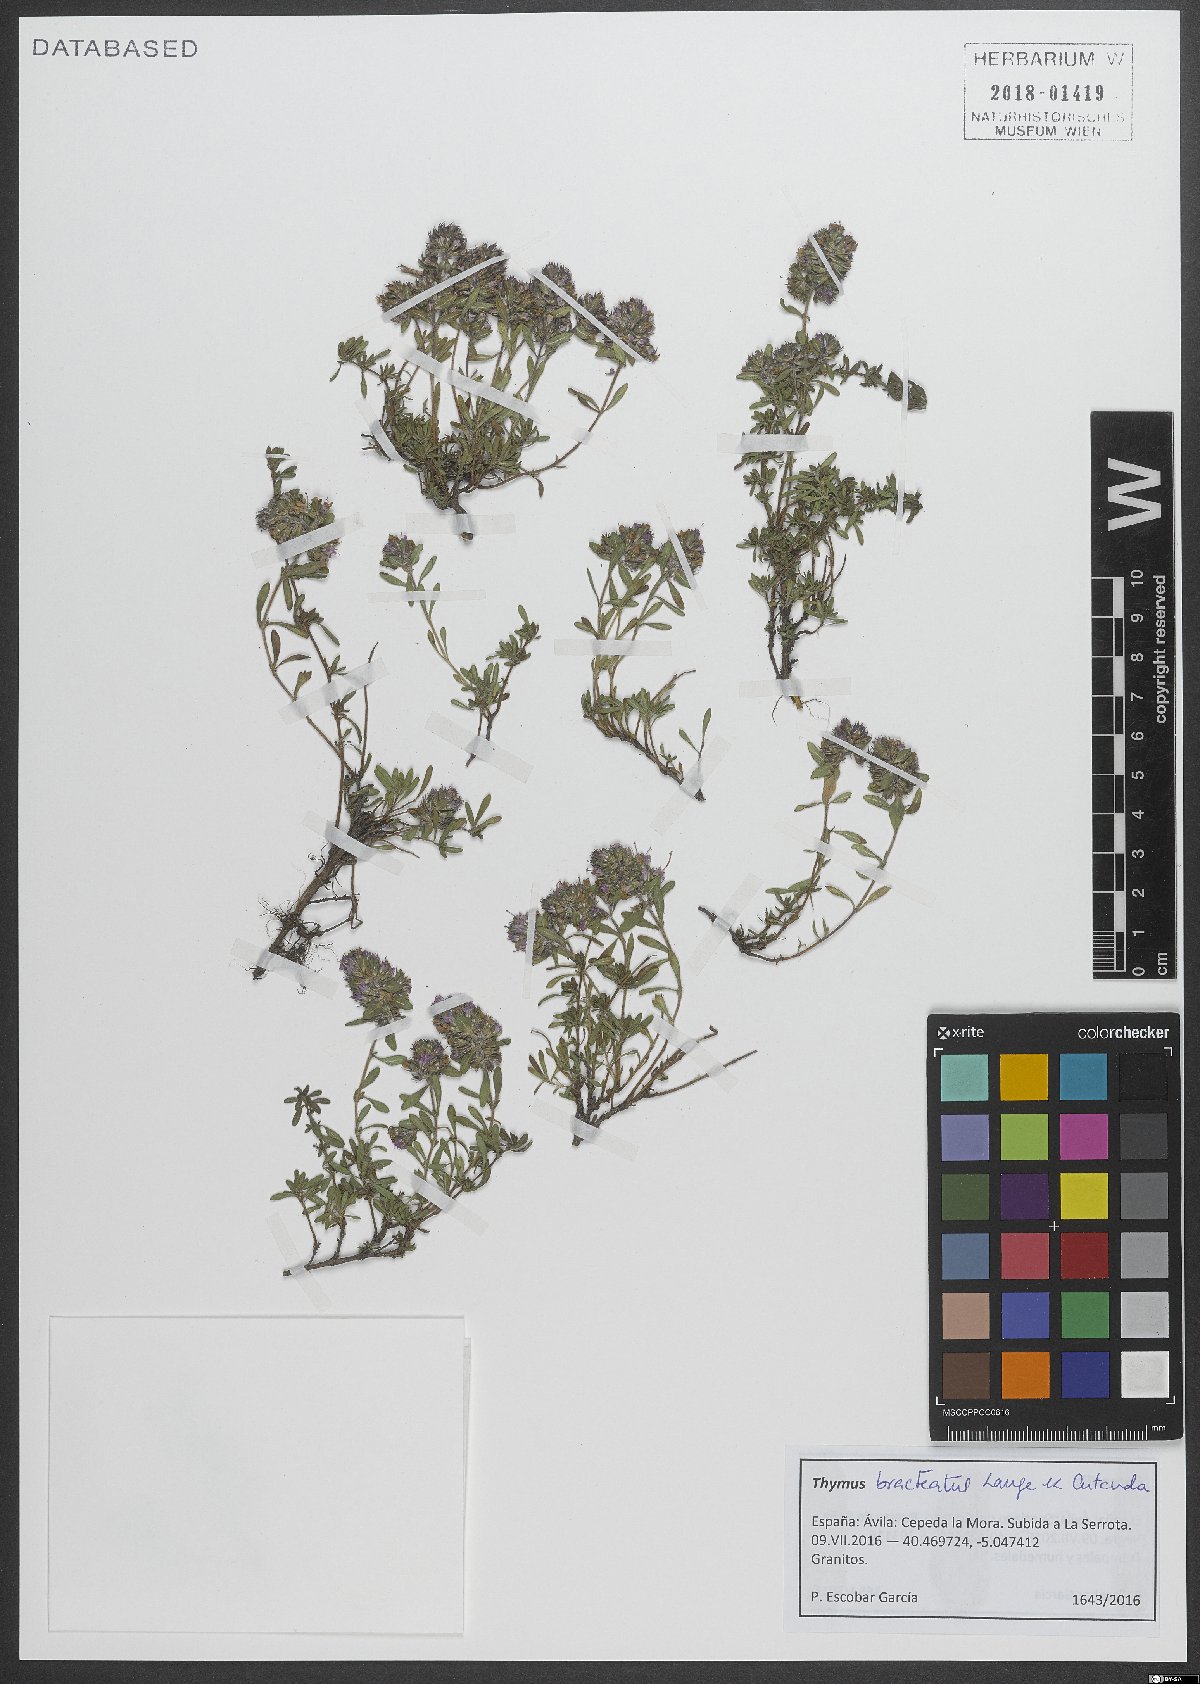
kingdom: Plantae
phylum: Tracheophyta
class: Magnoliopsida
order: Lamiales
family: Lamiaceae
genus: Thymus
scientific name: Thymus bracteatus
